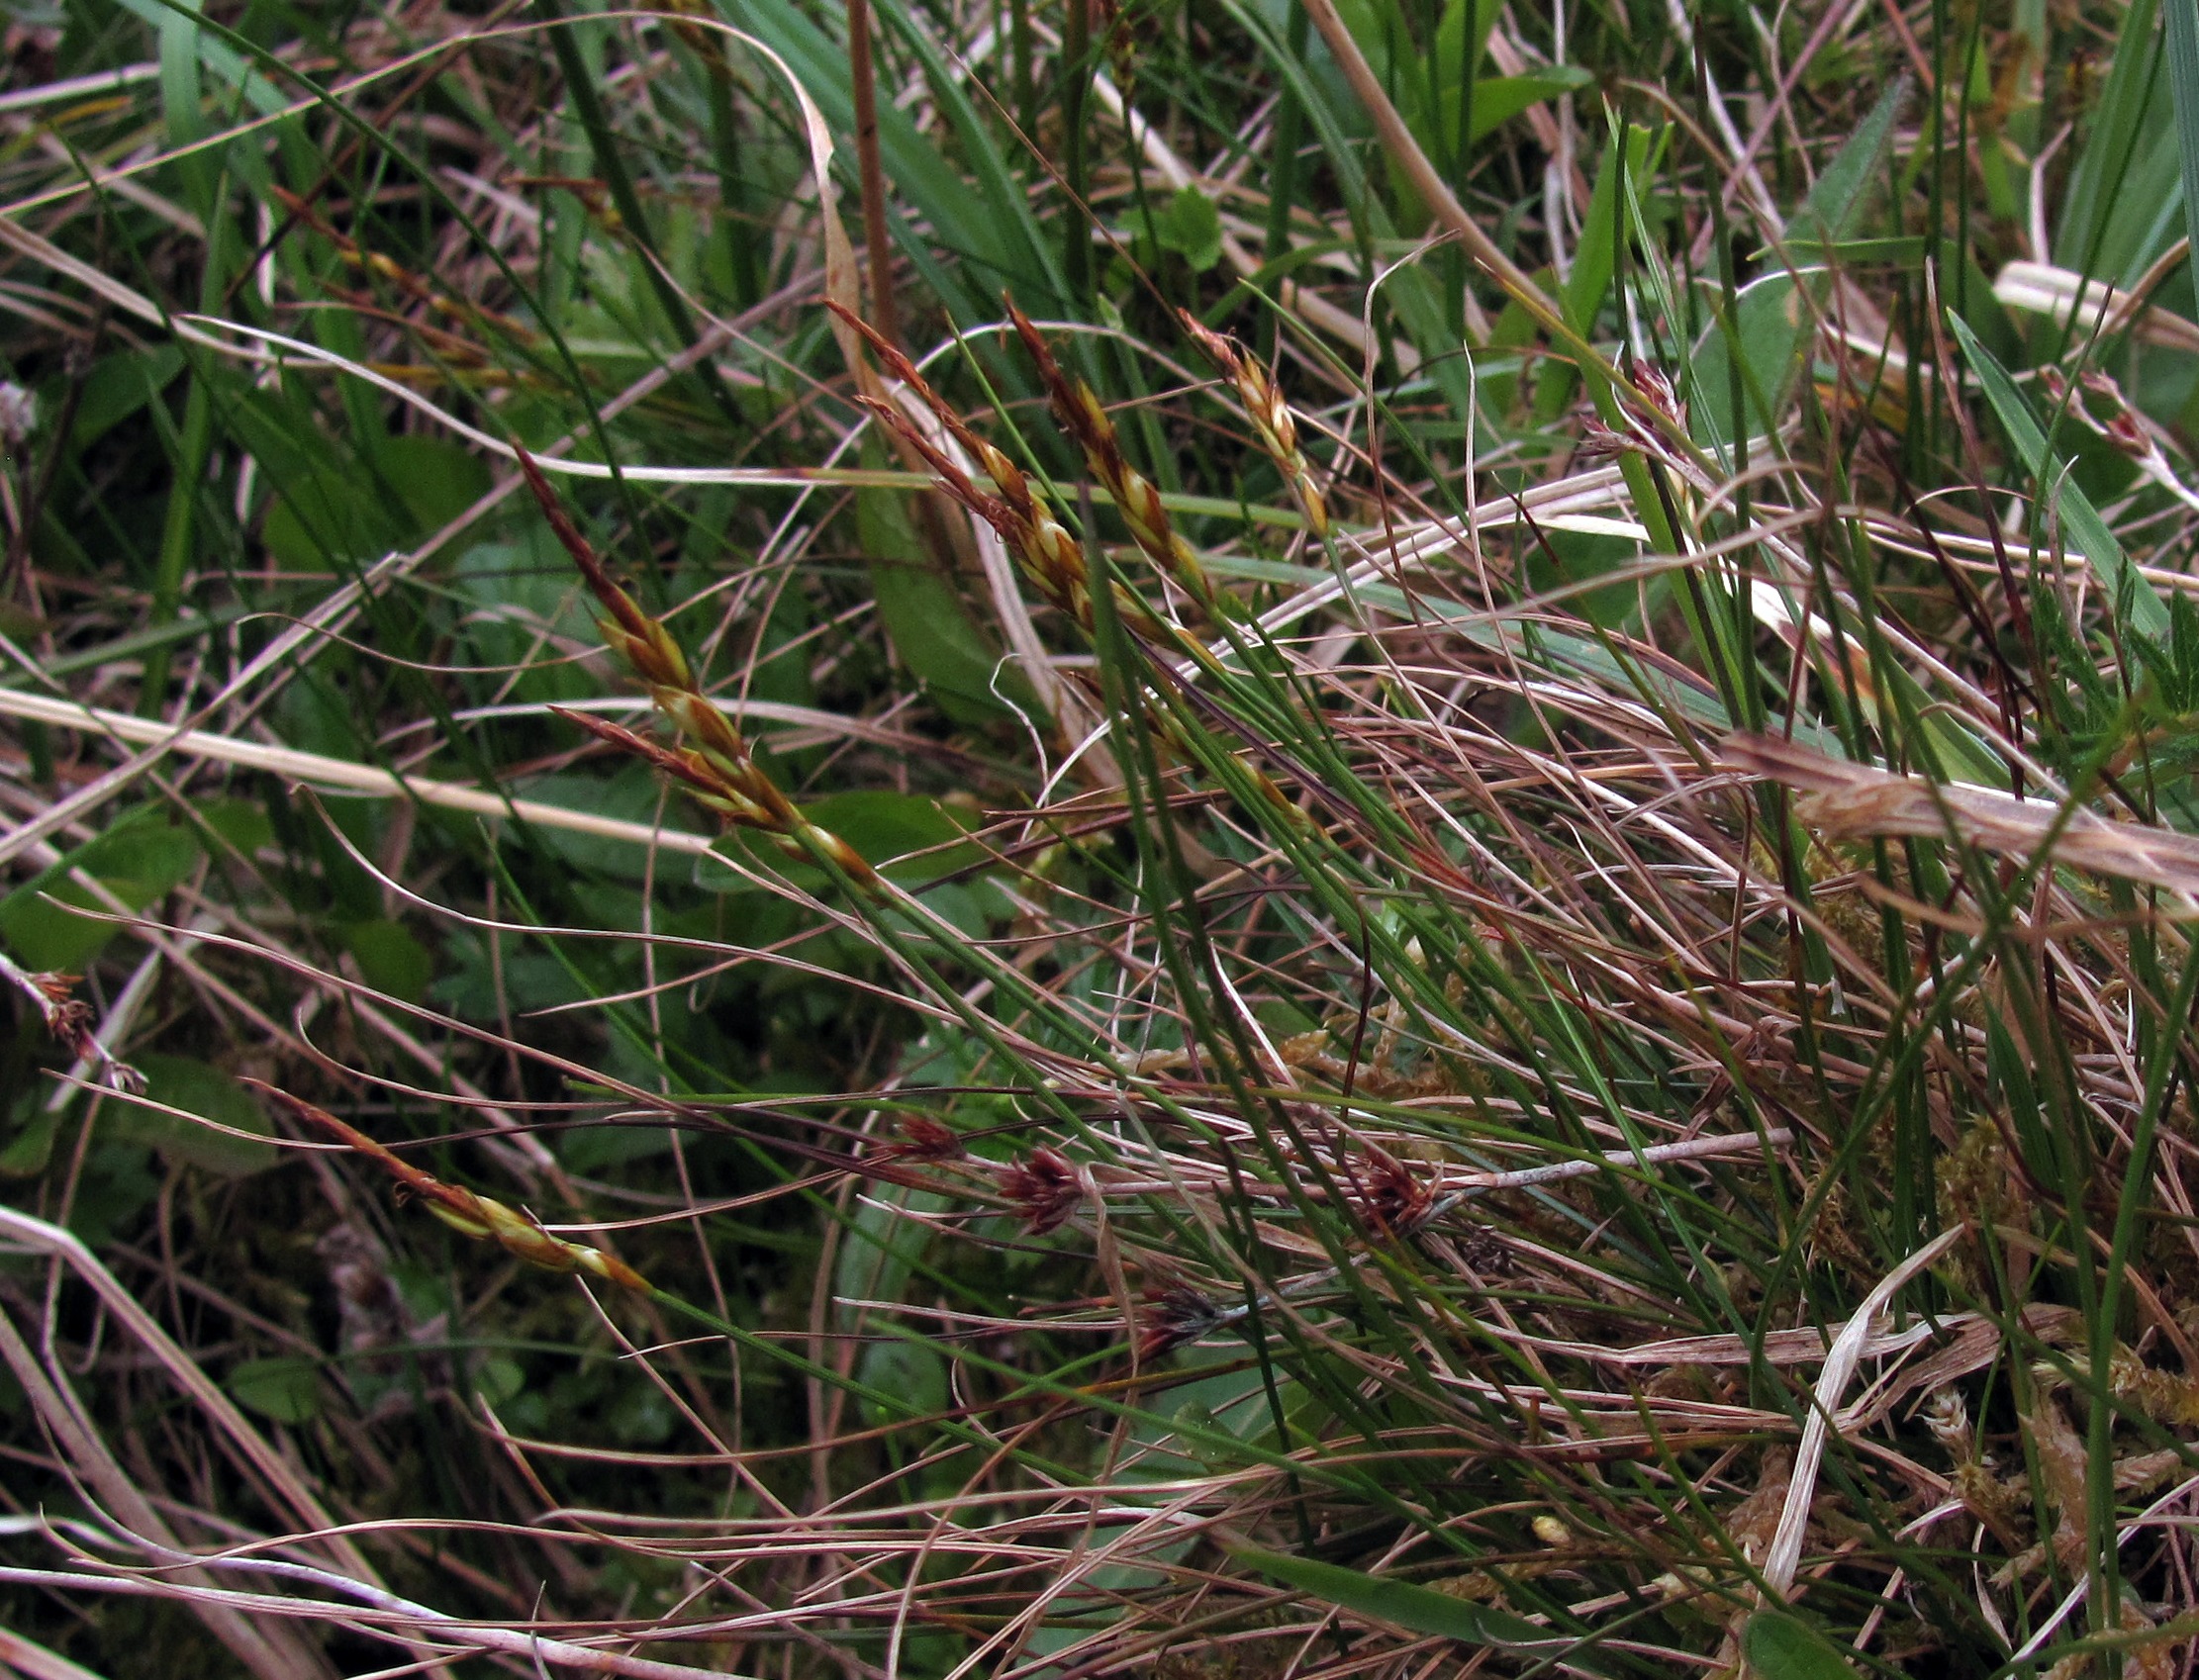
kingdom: Plantae
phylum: Tracheophyta
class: Liliopsida
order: Poales
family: Cyperaceae
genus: Carex
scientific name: Carex pulicaris
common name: Loppe-star
